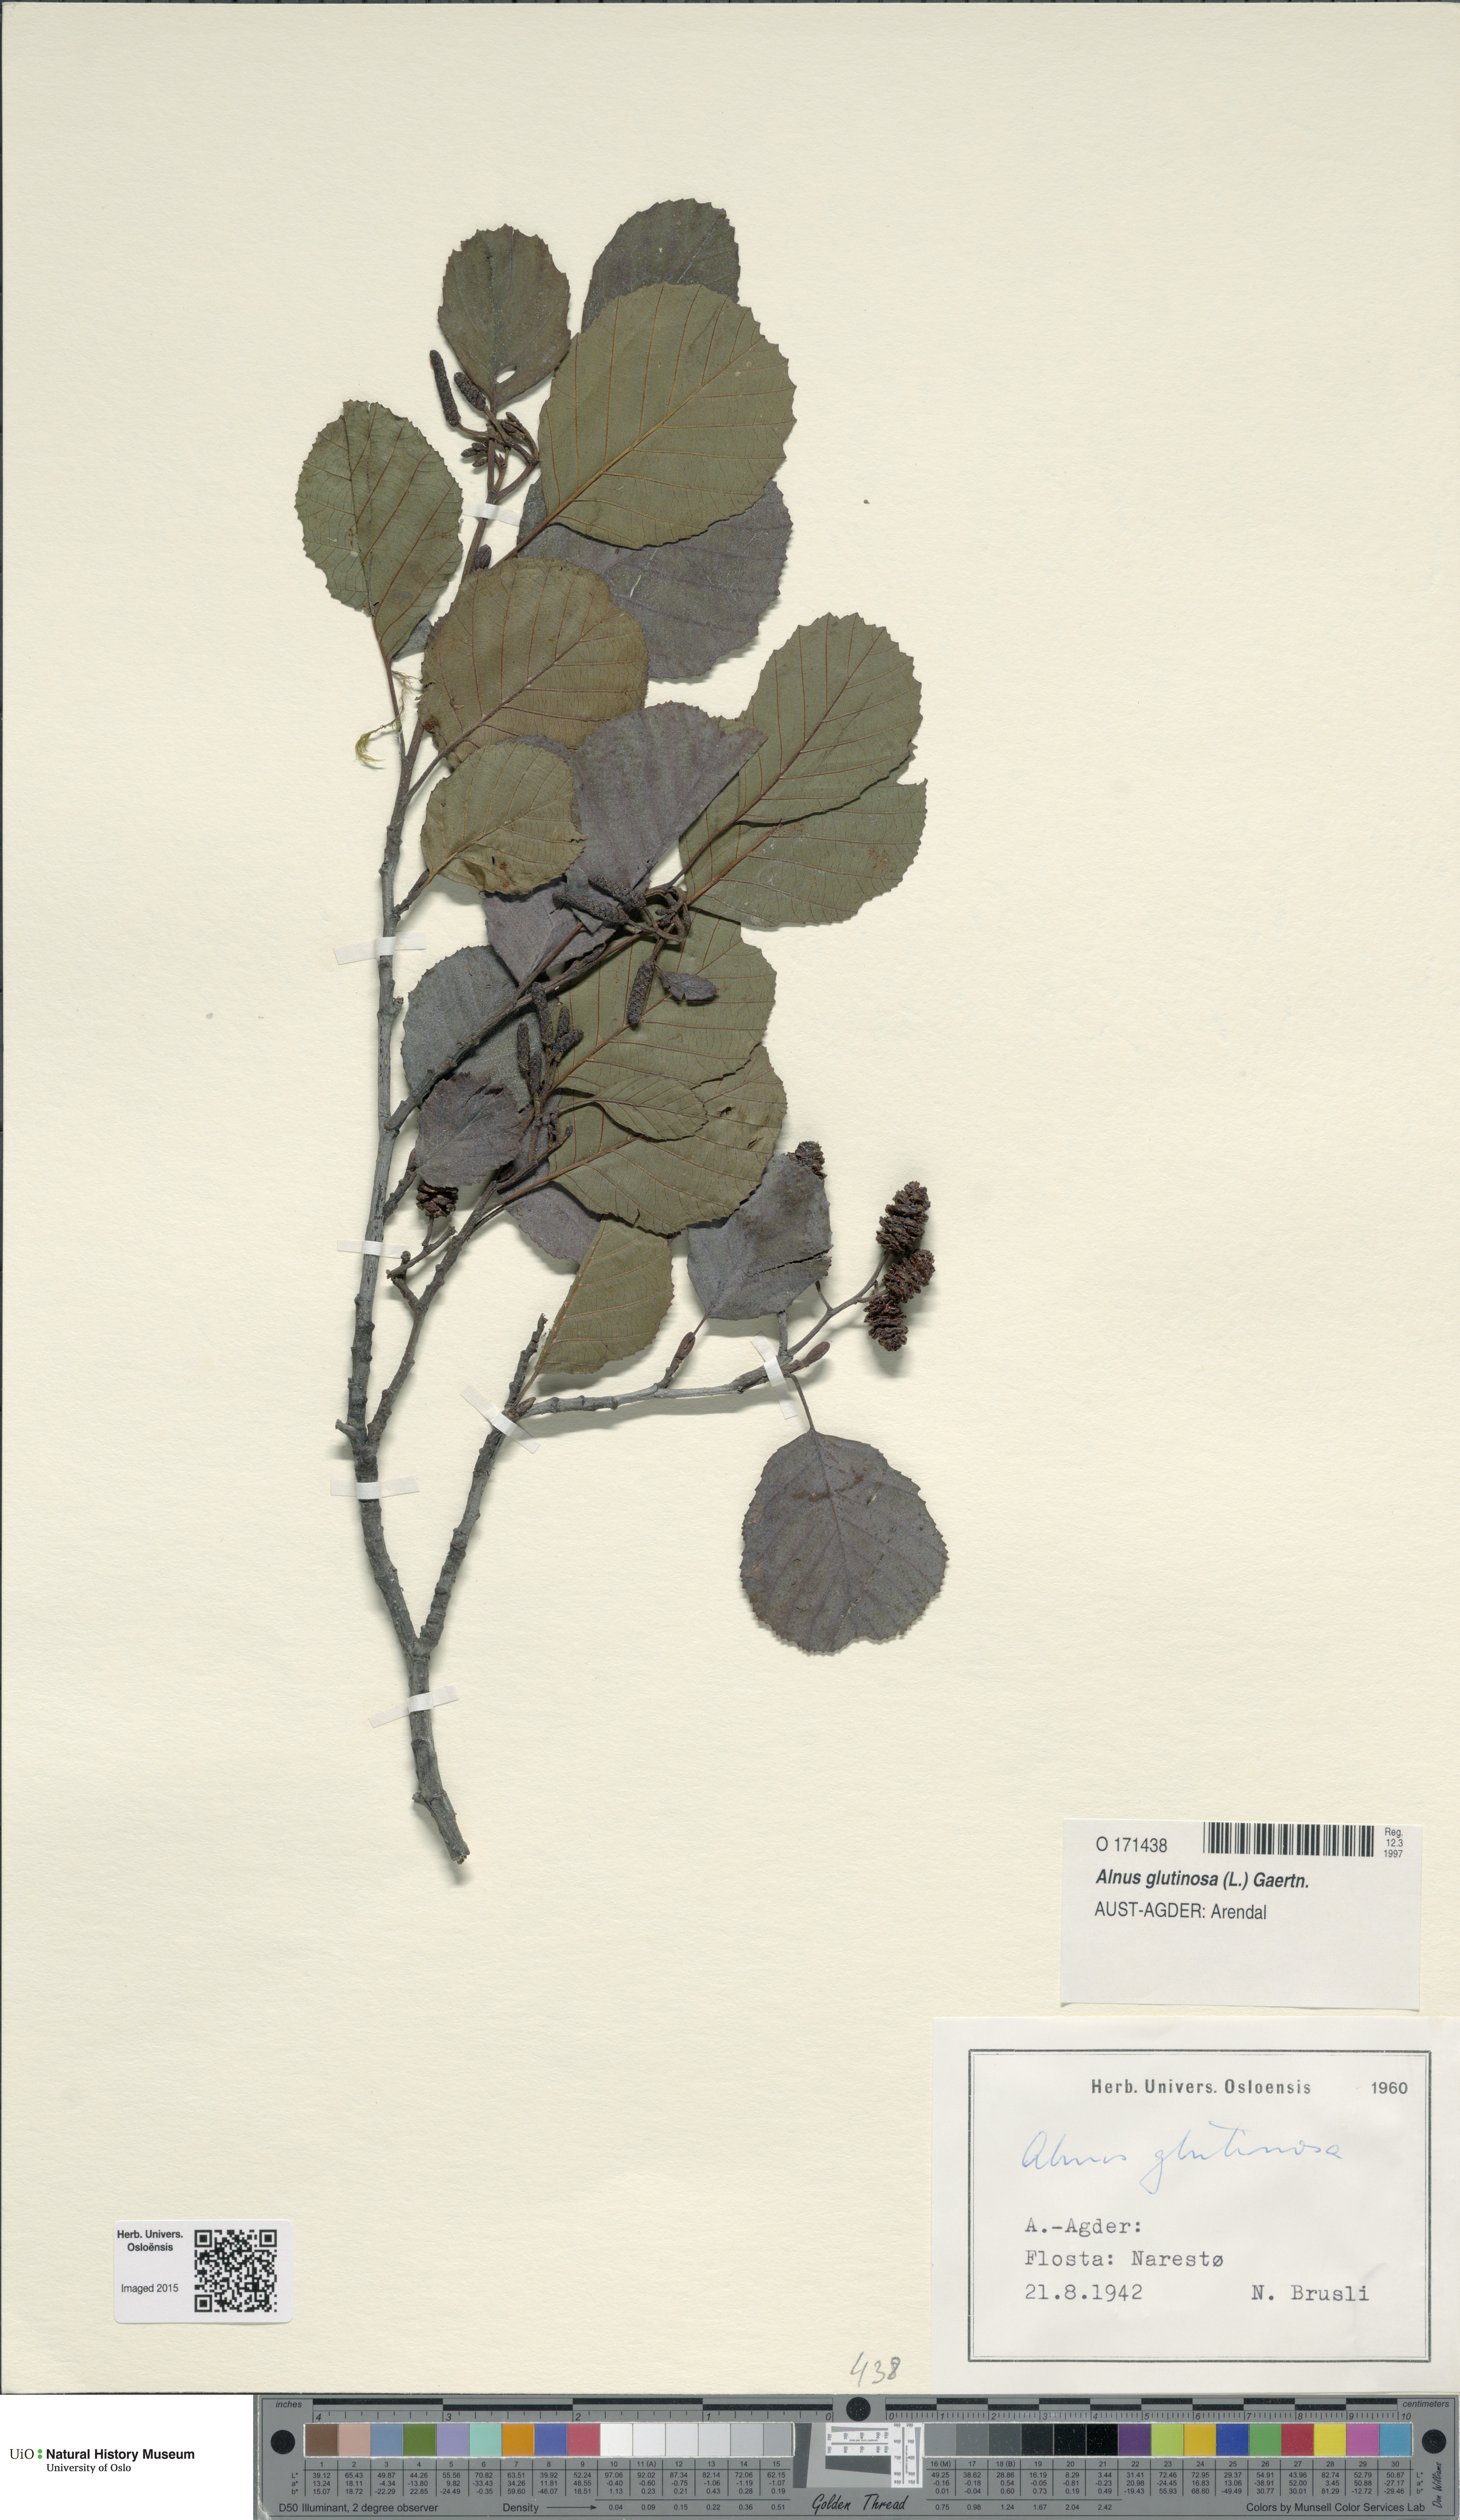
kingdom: Plantae
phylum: Tracheophyta
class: Magnoliopsida
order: Fagales
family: Betulaceae
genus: Alnus
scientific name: Alnus glutinosa
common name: Black alder
